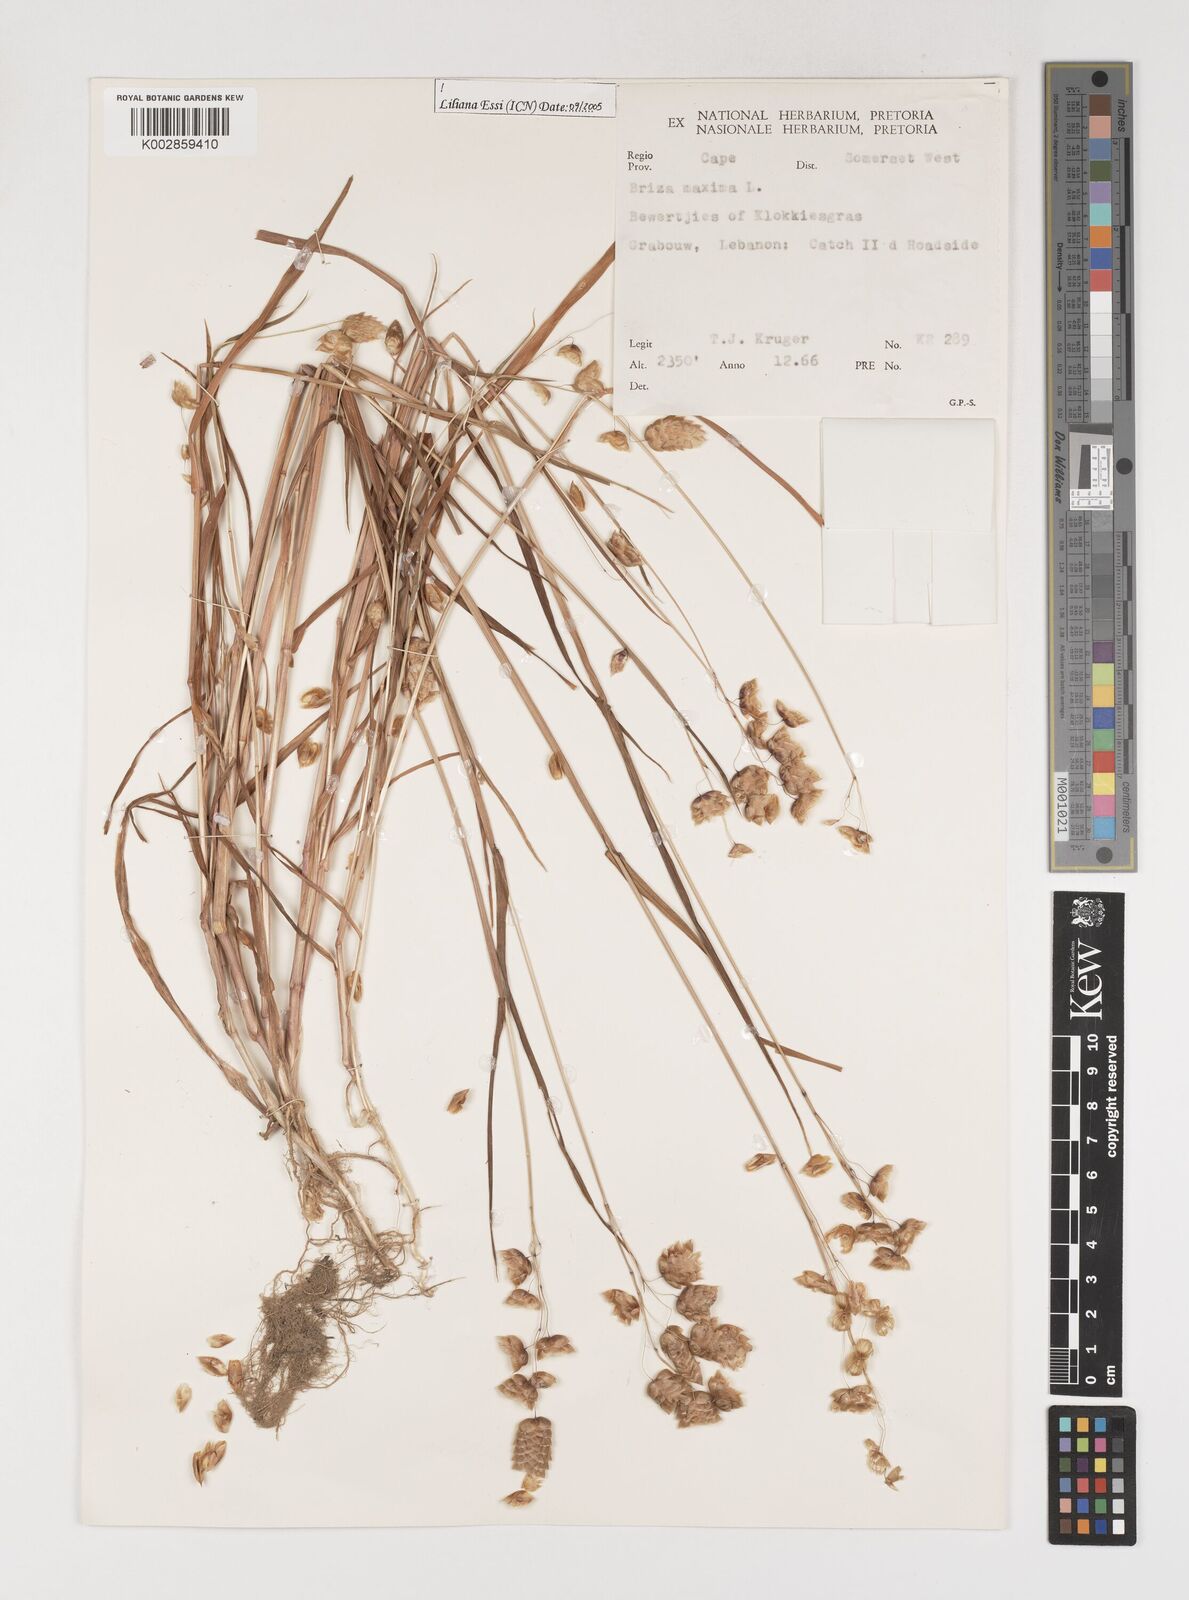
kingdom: Plantae
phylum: Tracheophyta
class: Liliopsida
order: Poales
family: Poaceae
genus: Briza
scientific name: Briza maxima
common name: Big quakinggrass
